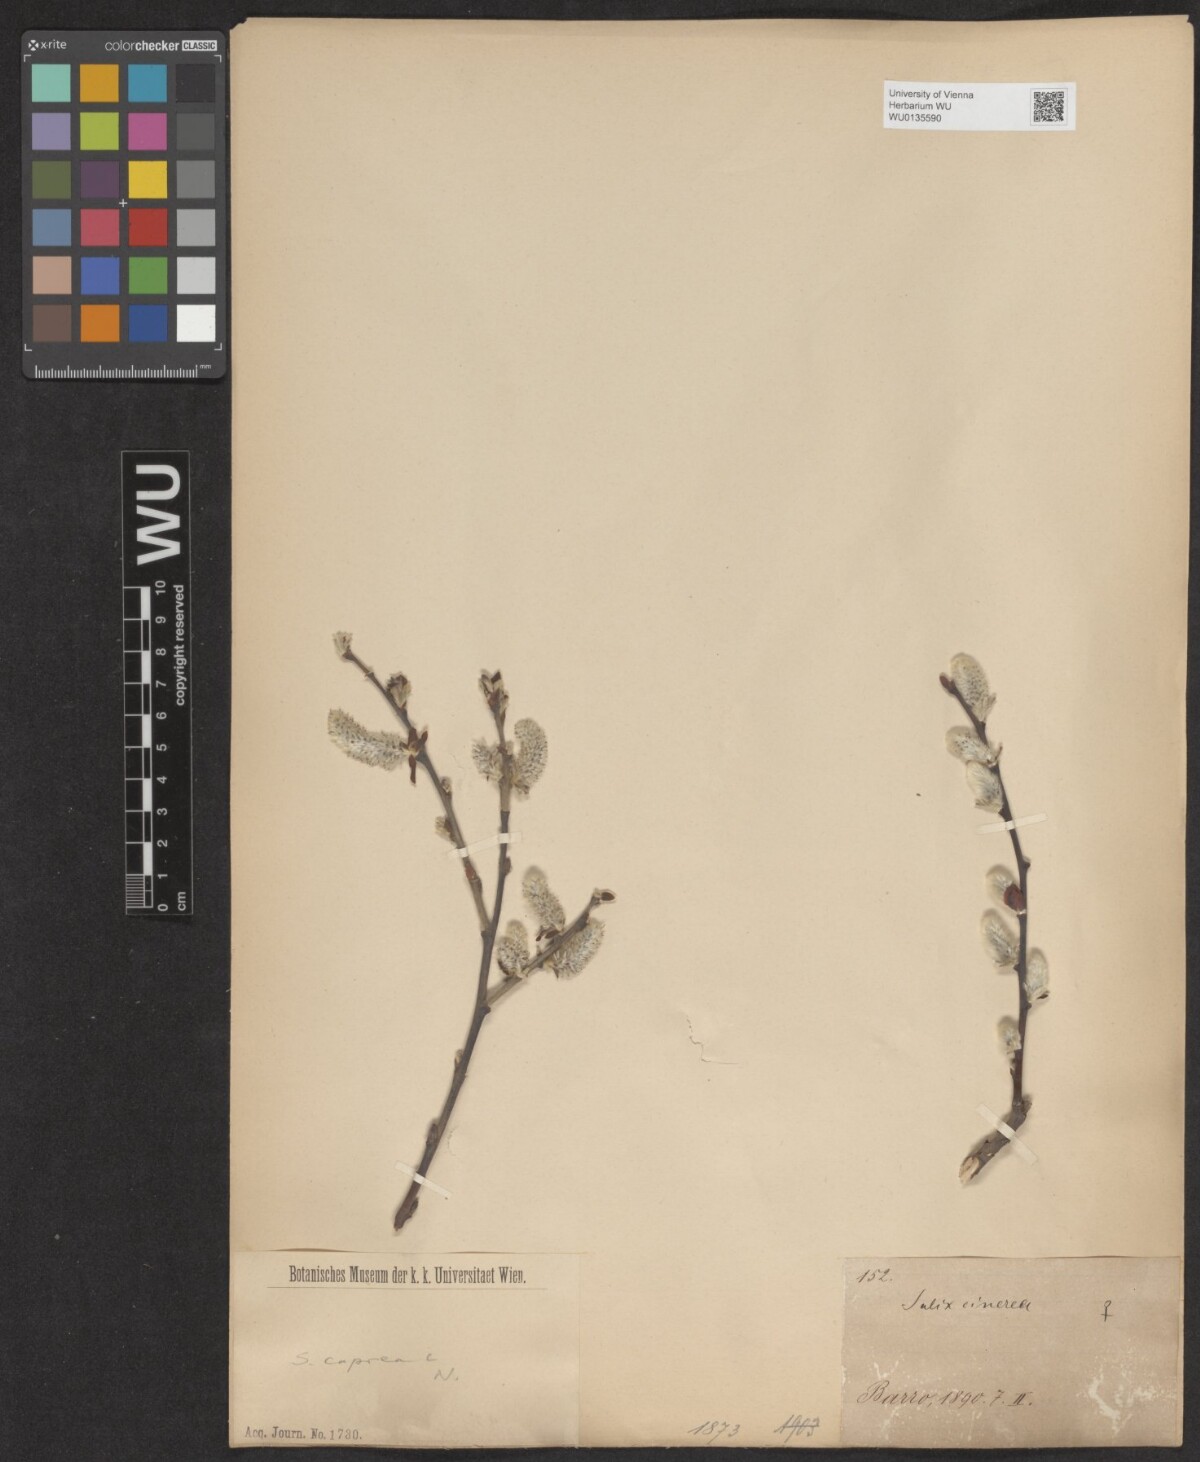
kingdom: Plantae
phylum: Tracheophyta
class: Magnoliopsida
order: Malpighiales
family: Salicaceae
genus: Salix
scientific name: Salix caprea
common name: Goat willow
